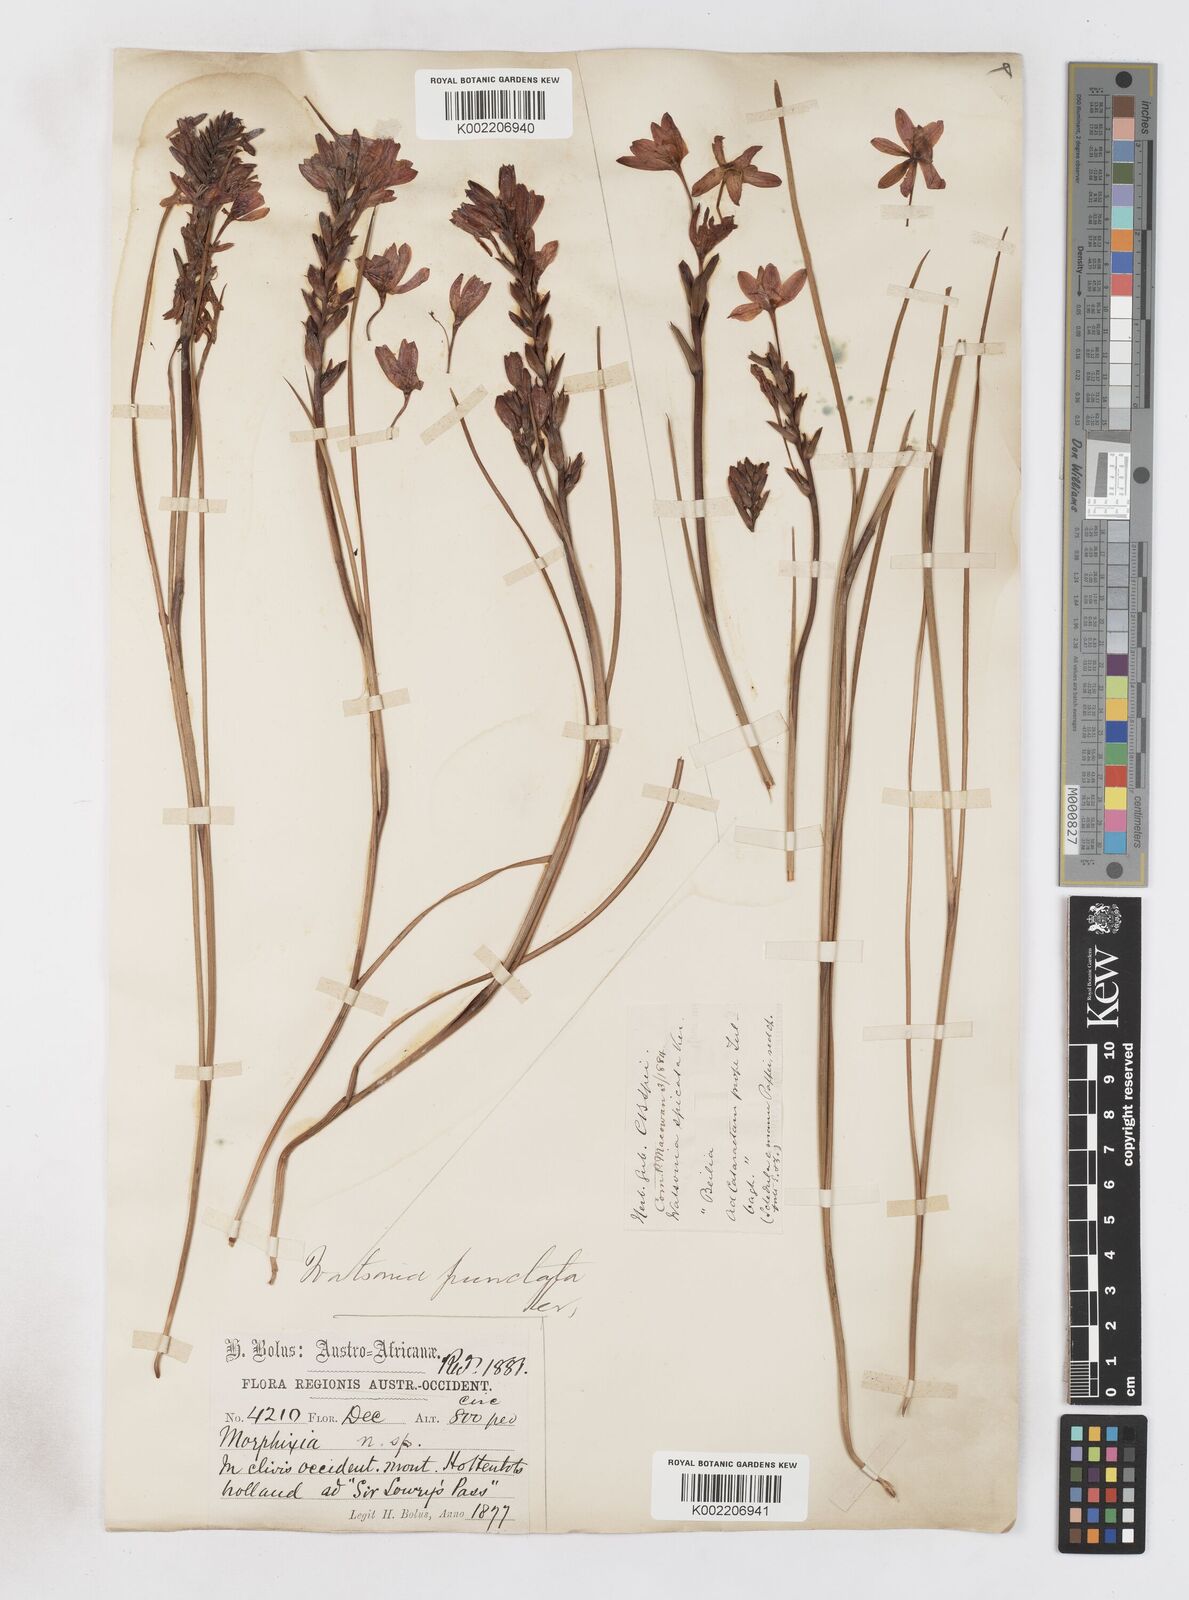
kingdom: Plantae
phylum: Tracheophyta
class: Liliopsida
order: Asparagales
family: Iridaceae
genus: Thereianthus
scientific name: Thereianthus spicatus
